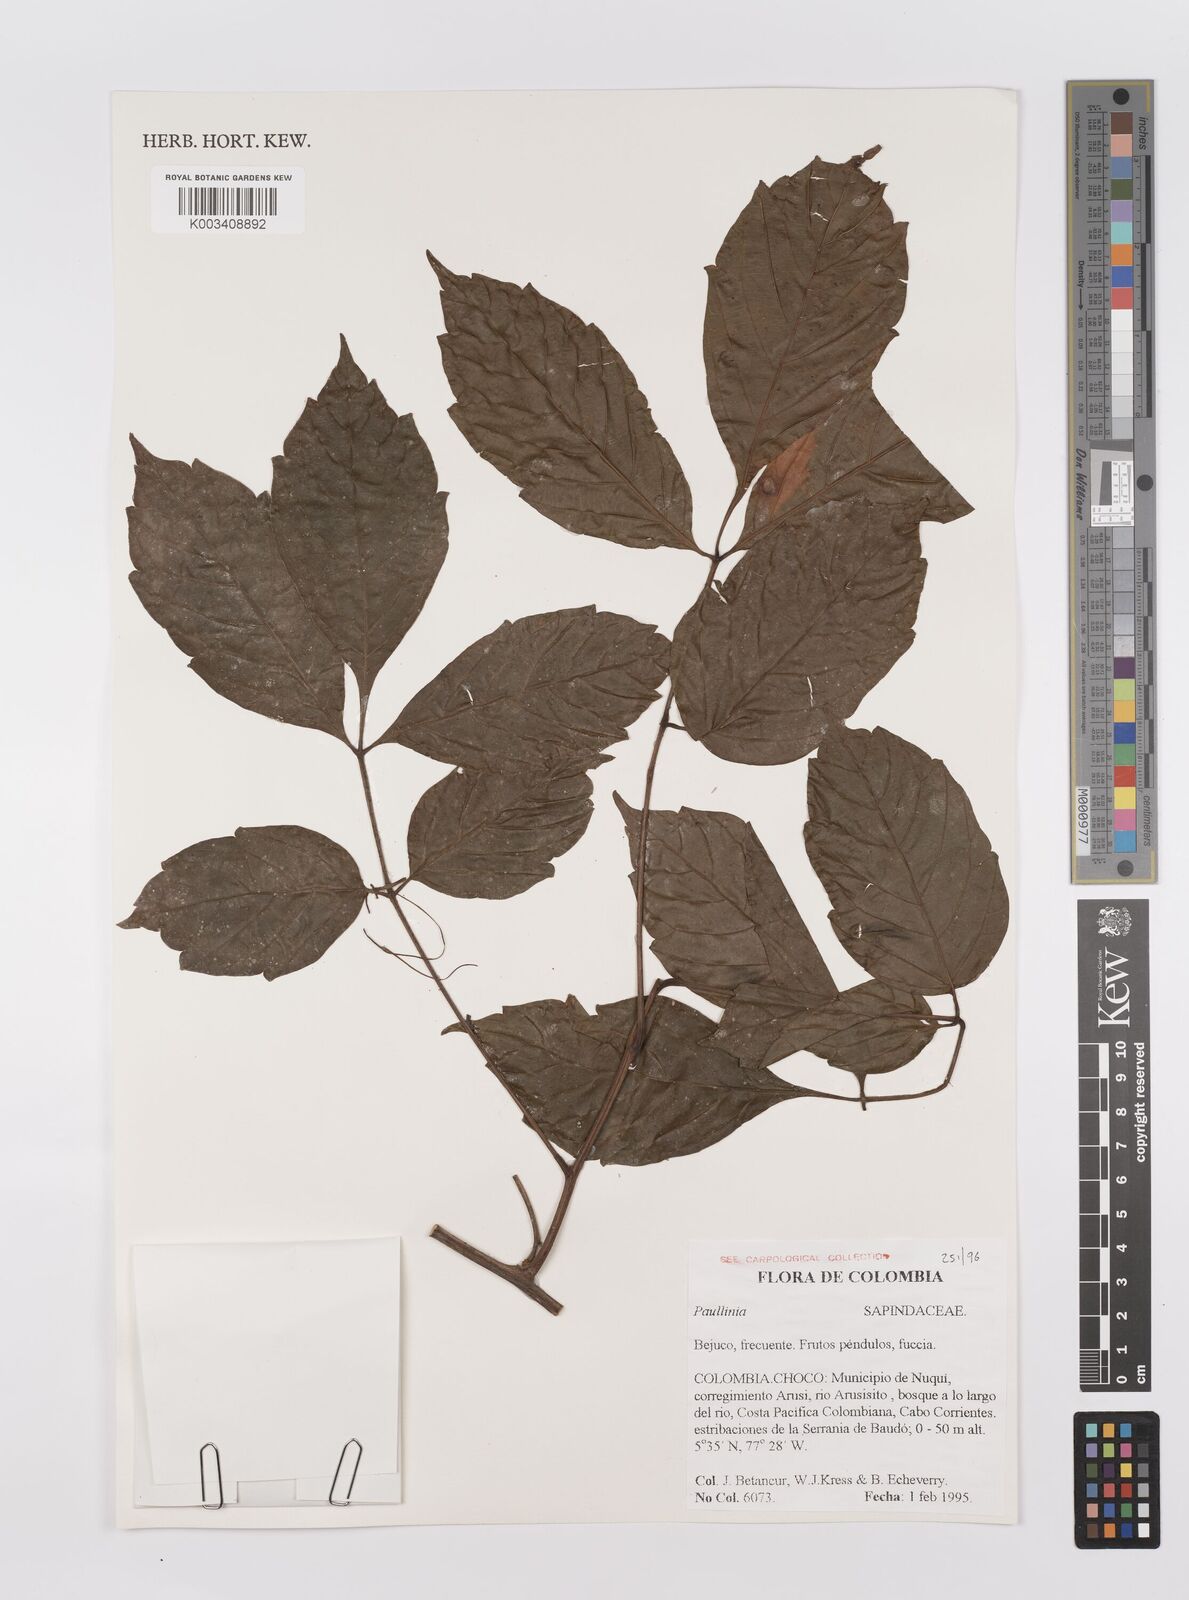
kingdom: Plantae
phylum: Tracheophyta
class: Magnoliopsida
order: Sapindales
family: Sapindaceae
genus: Paullinia
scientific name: Paullinia
